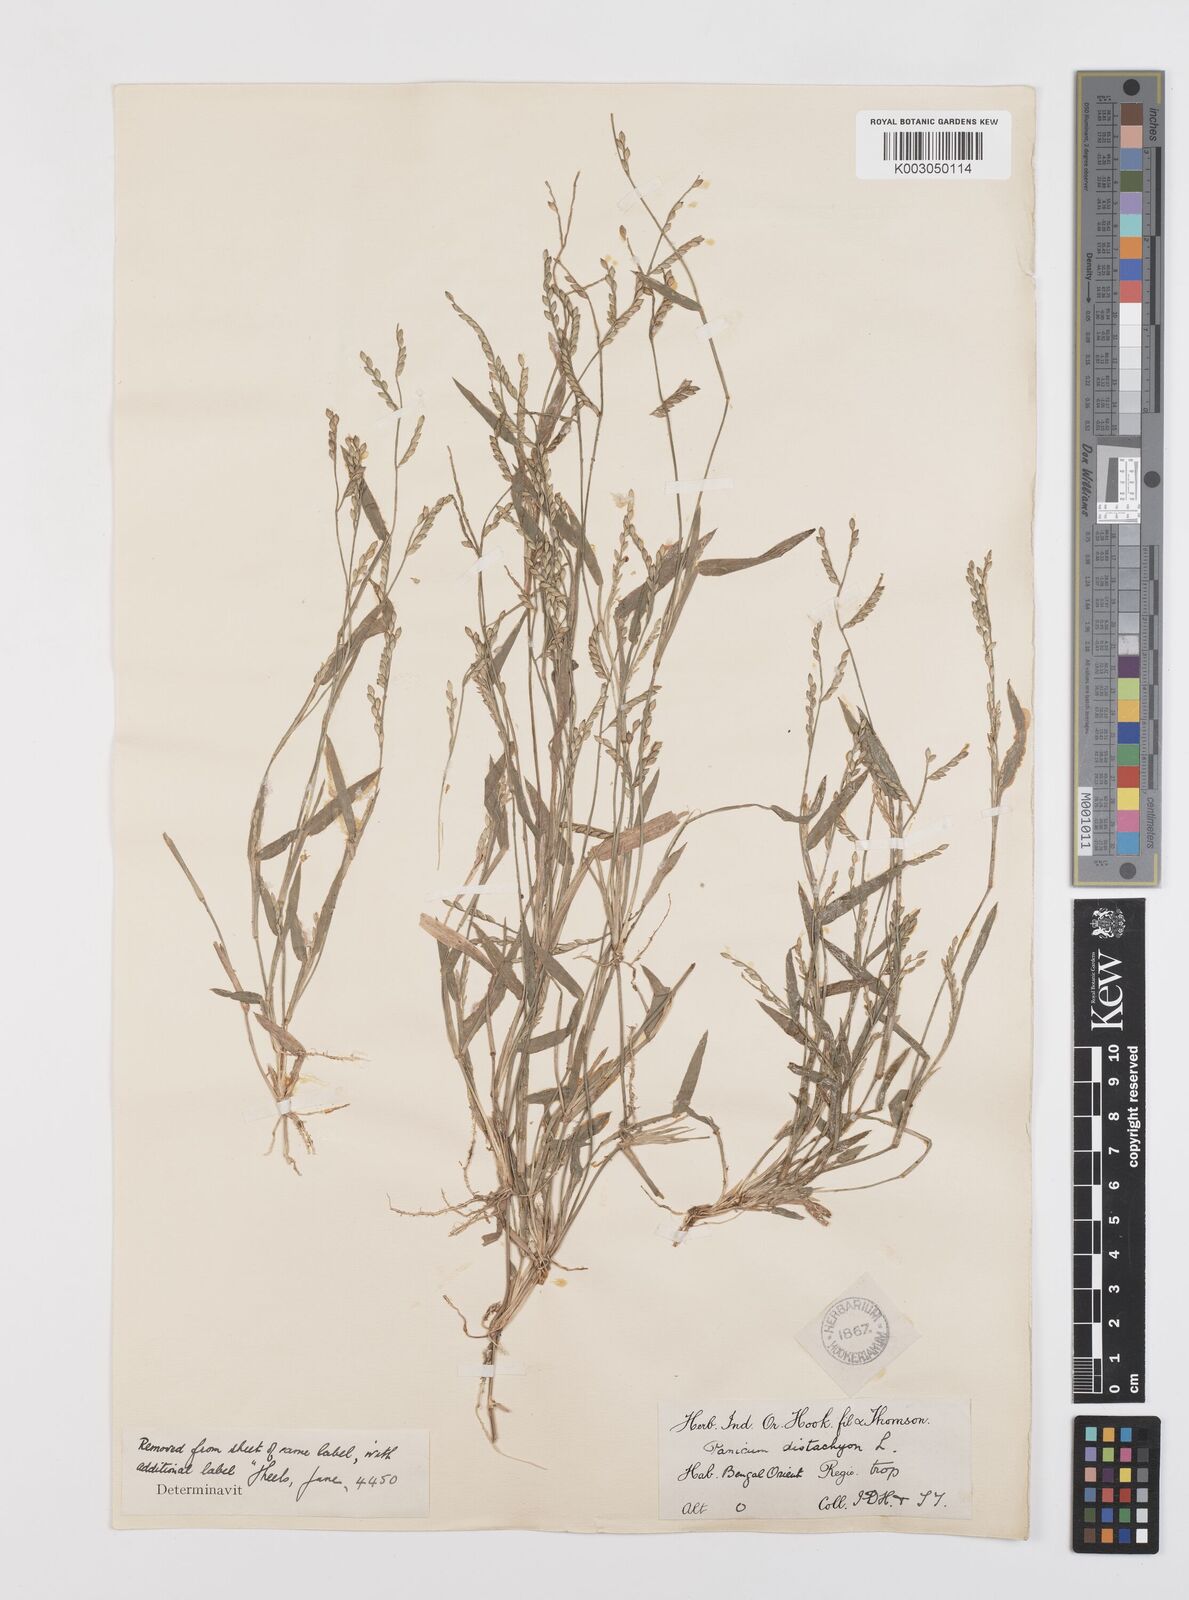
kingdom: Plantae
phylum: Tracheophyta
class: Liliopsida
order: Poales
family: Poaceae
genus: Urochloa
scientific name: Urochloa subquadripara
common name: Armgrass millet
